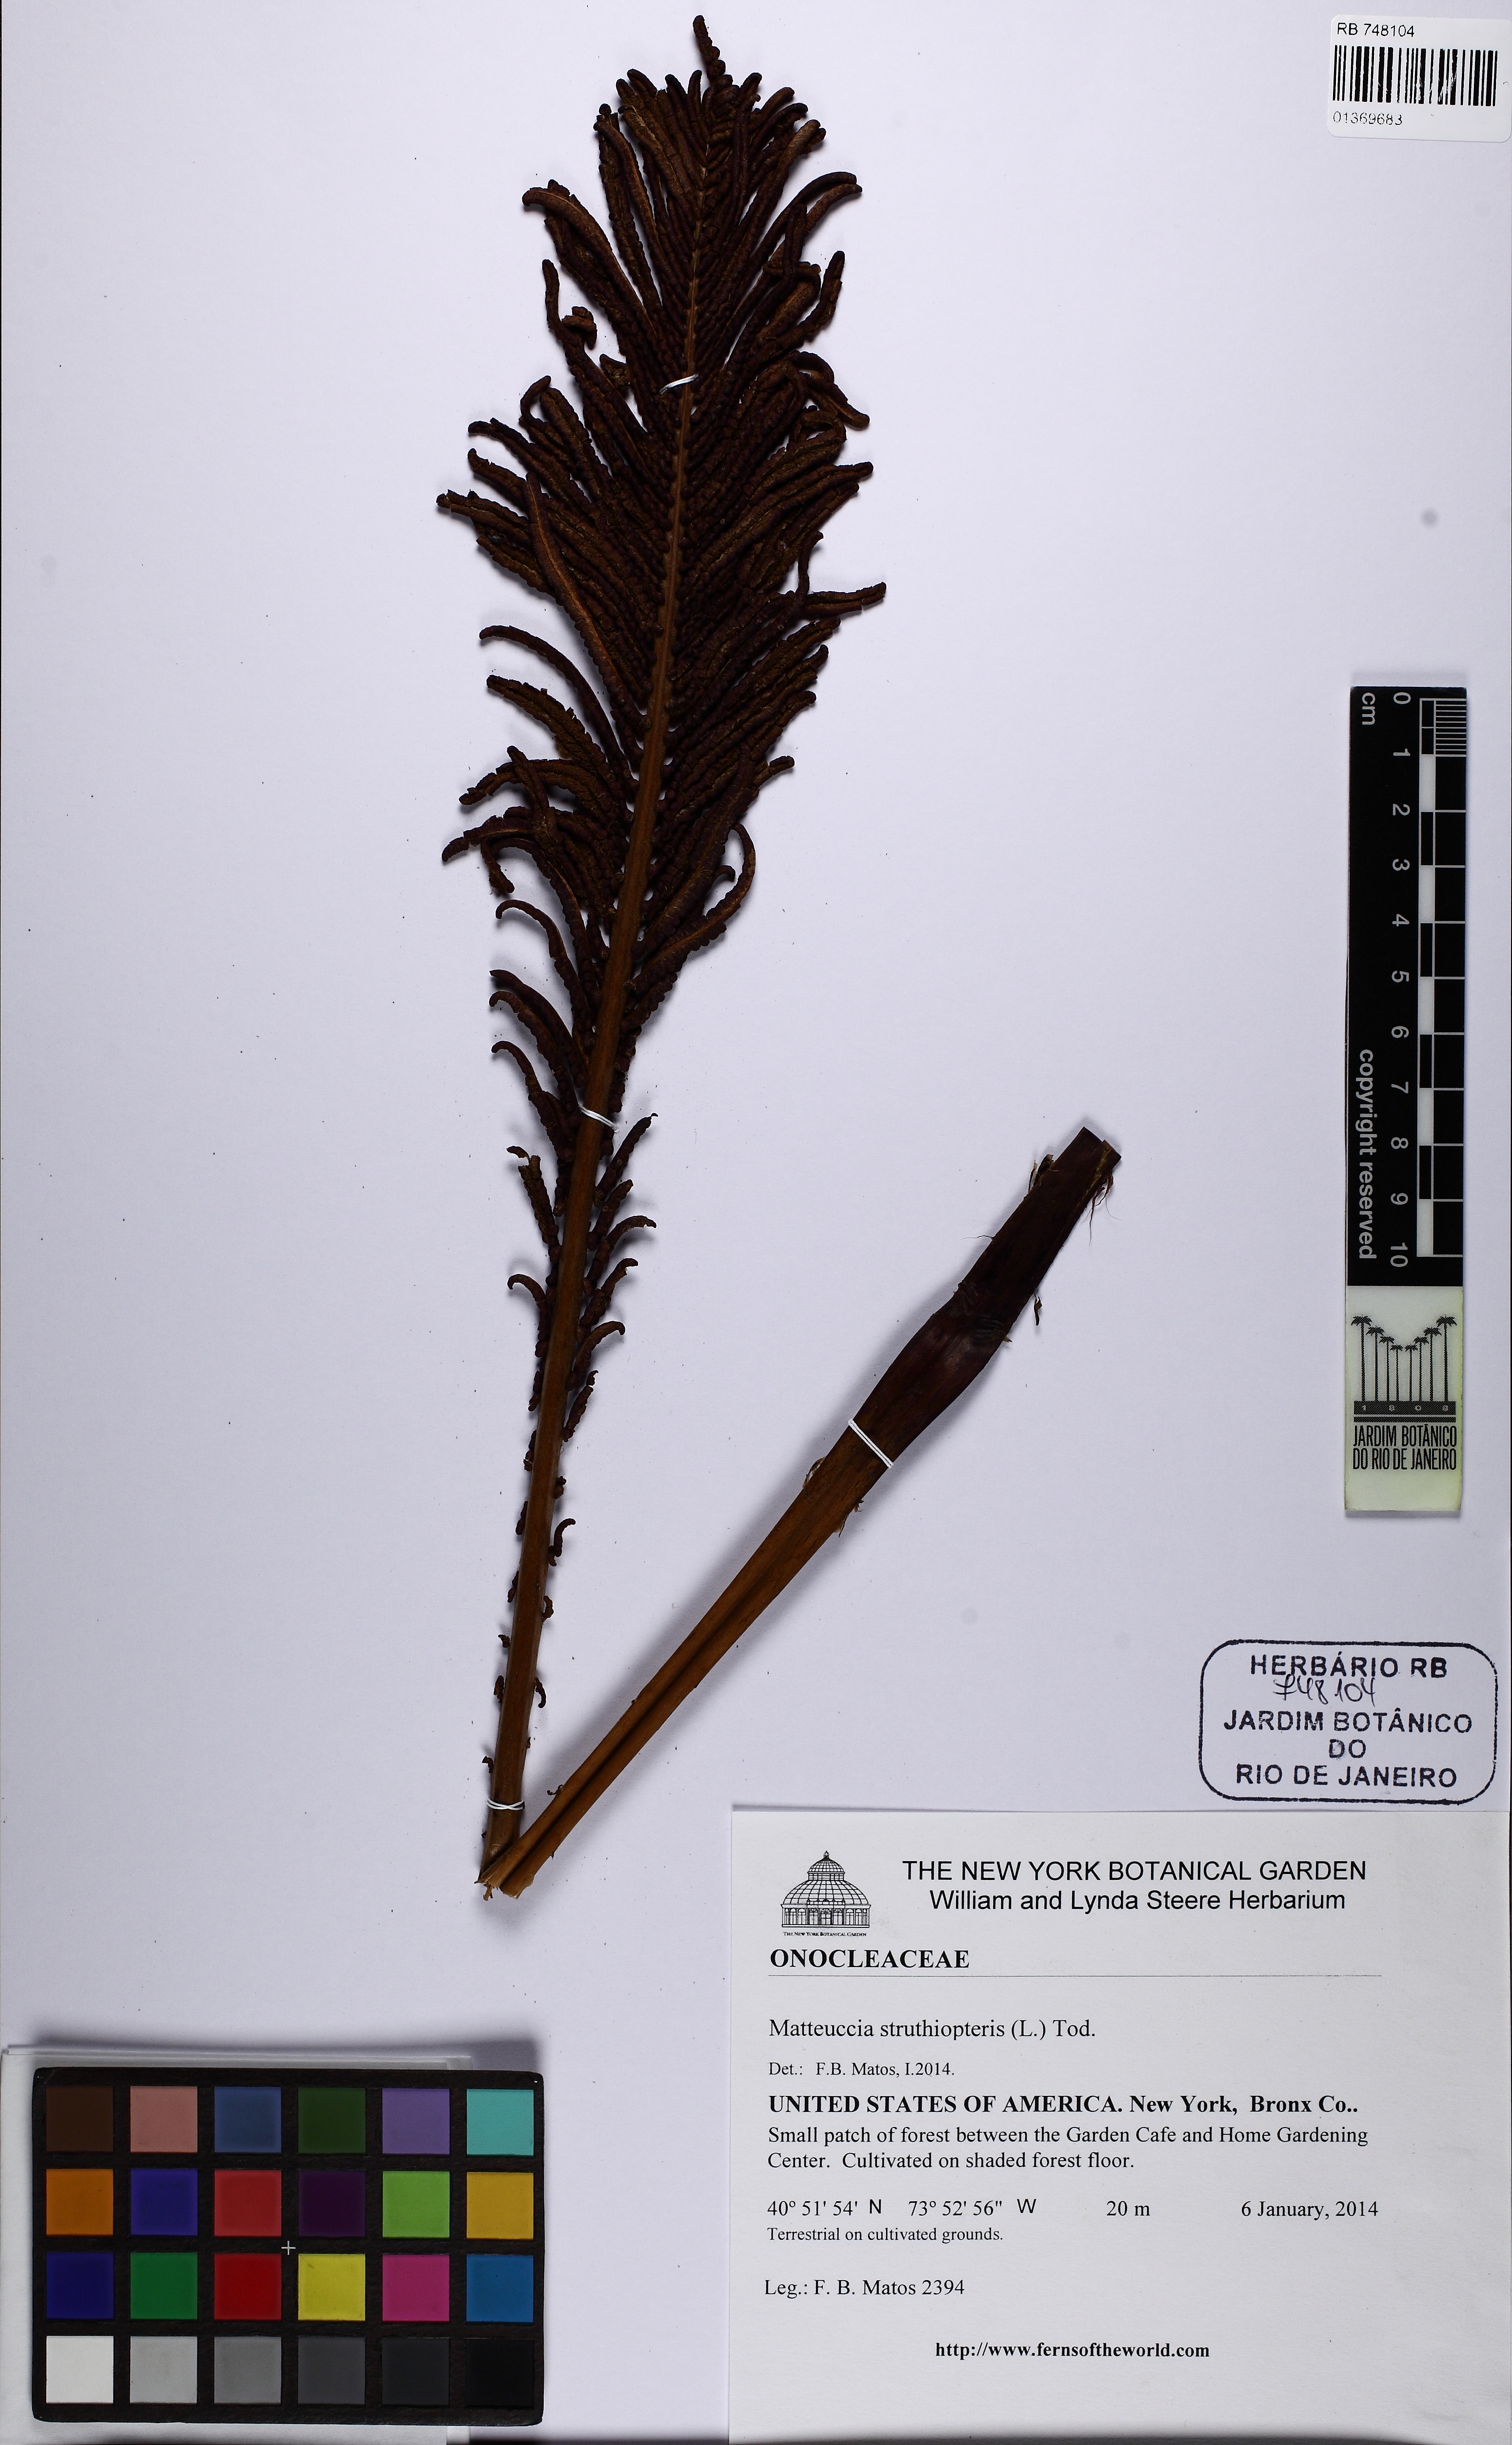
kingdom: Plantae
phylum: Tracheophyta
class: Polypodiopsida
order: Polypodiales
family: Onocleaceae
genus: Matteuccia
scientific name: Matteuccia struthiopteris
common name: Ostrich fern
